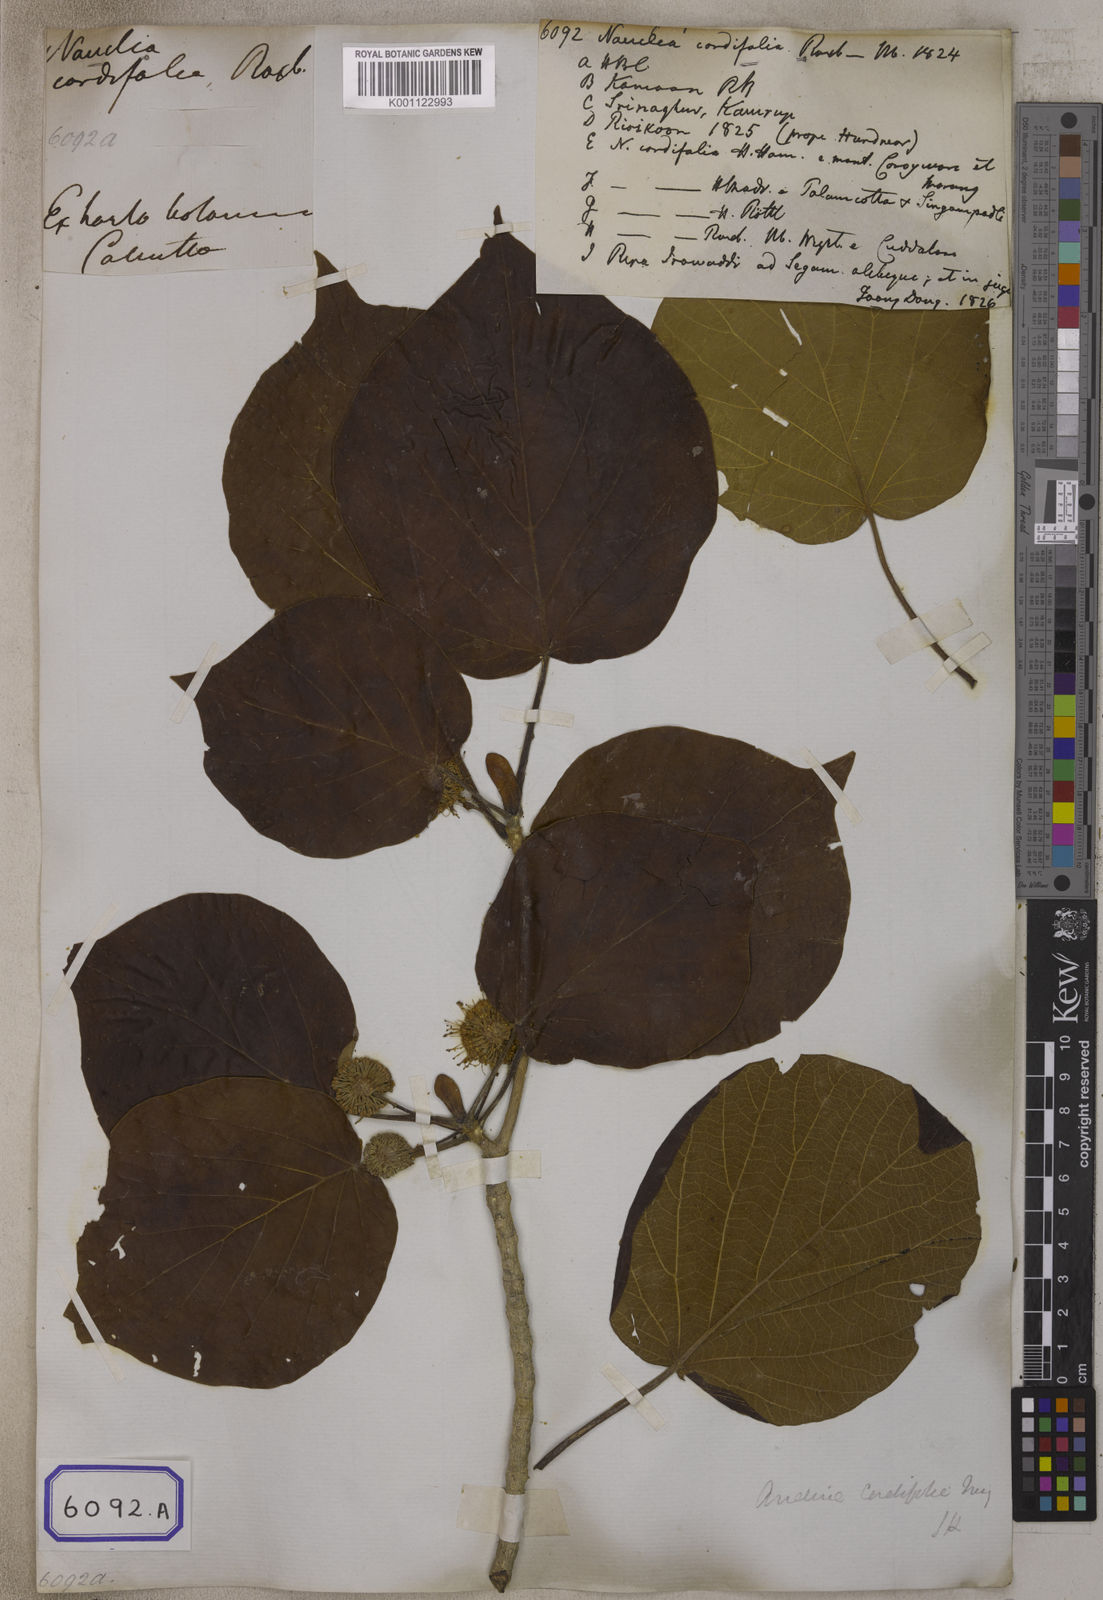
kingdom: Plantae
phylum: Tracheophyta
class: Magnoliopsida
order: Gentianales
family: Rubiaceae
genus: Adina
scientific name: Adina cordifolia
